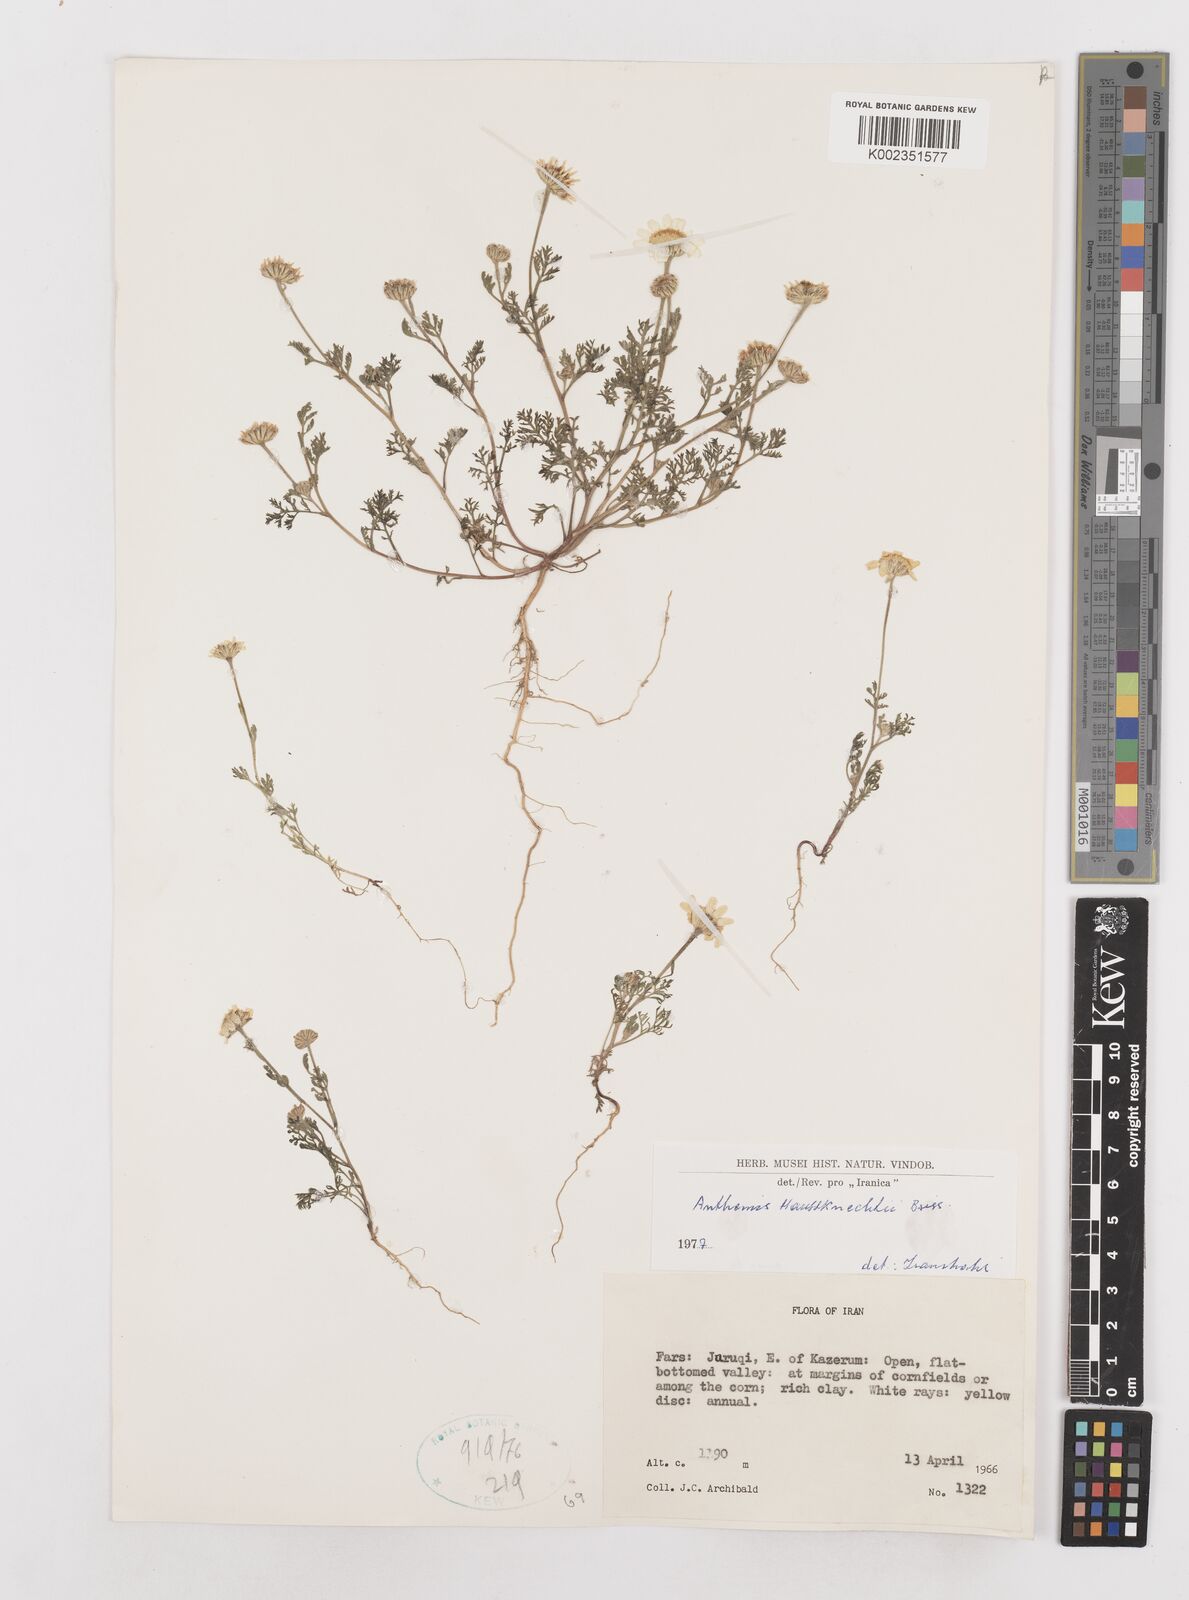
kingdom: Plantae
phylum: Tracheophyta
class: Magnoliopsida
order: Asterales
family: Asteraceae
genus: Anthemis
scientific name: Anthemis haussknechtii
